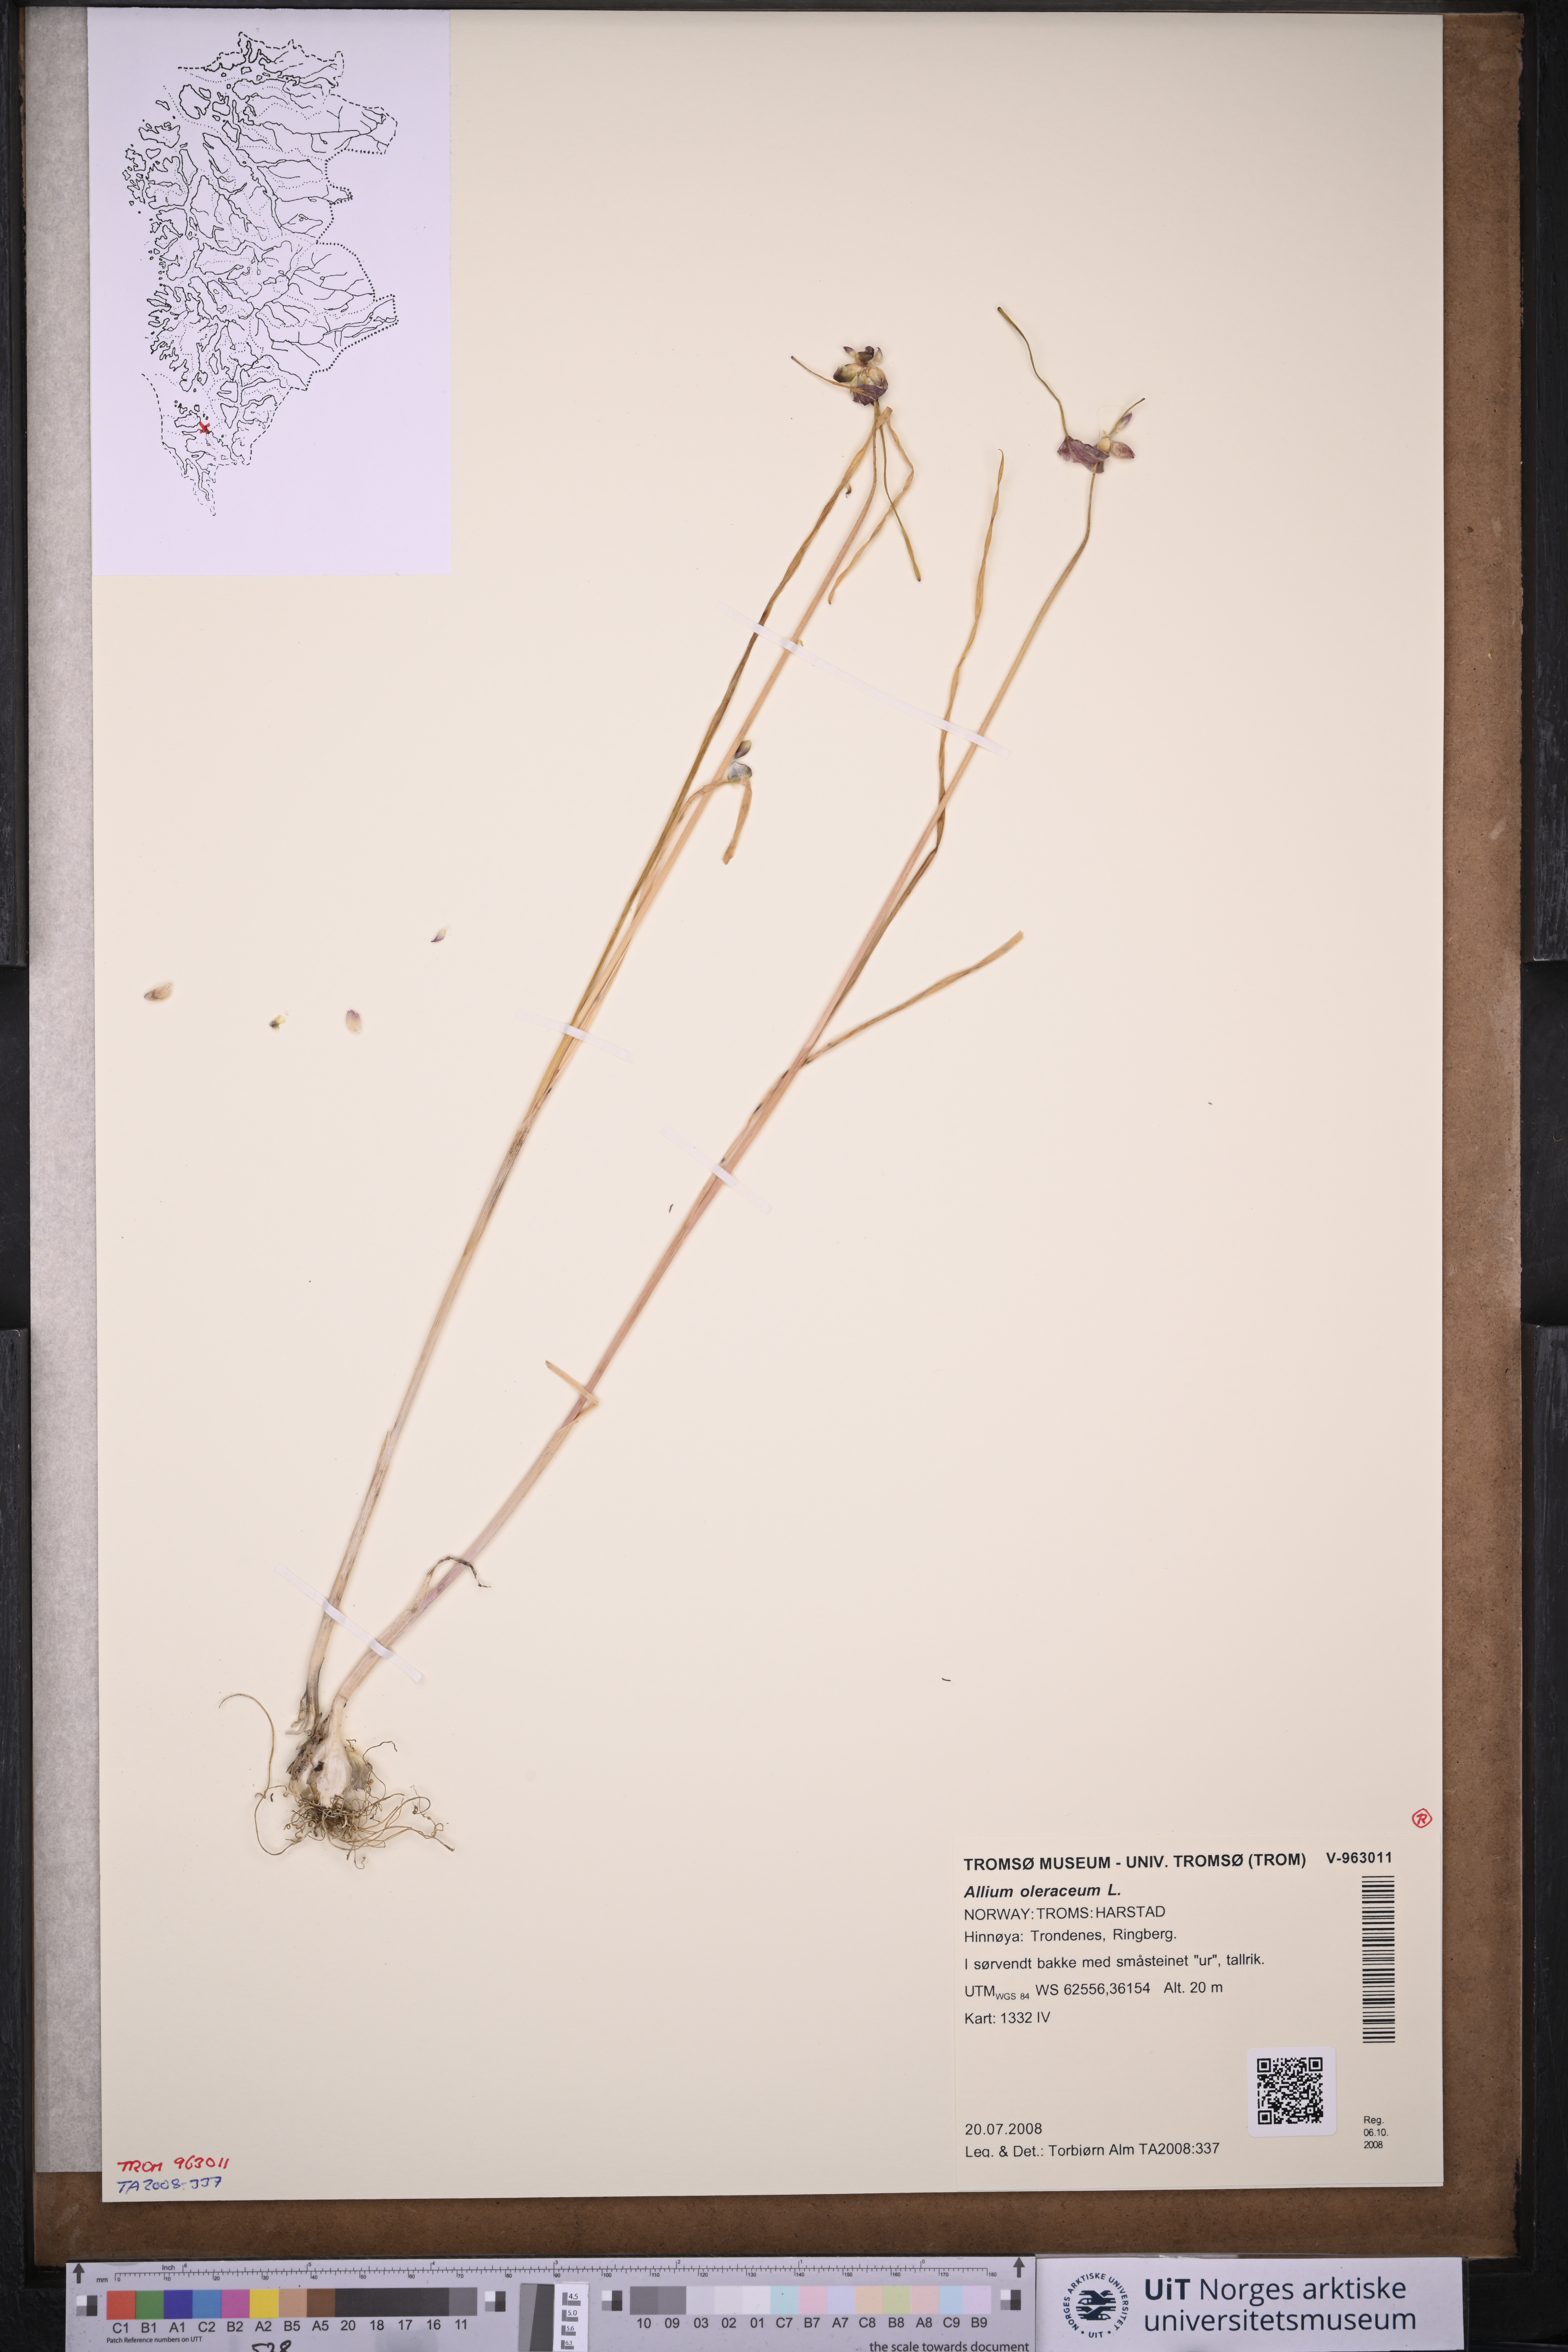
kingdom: Plantae
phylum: Tracheophyta
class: Liliopsida
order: Asparagales
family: Amaryllidaceae
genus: Allium
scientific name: Allium oleraceum
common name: Field garlic
